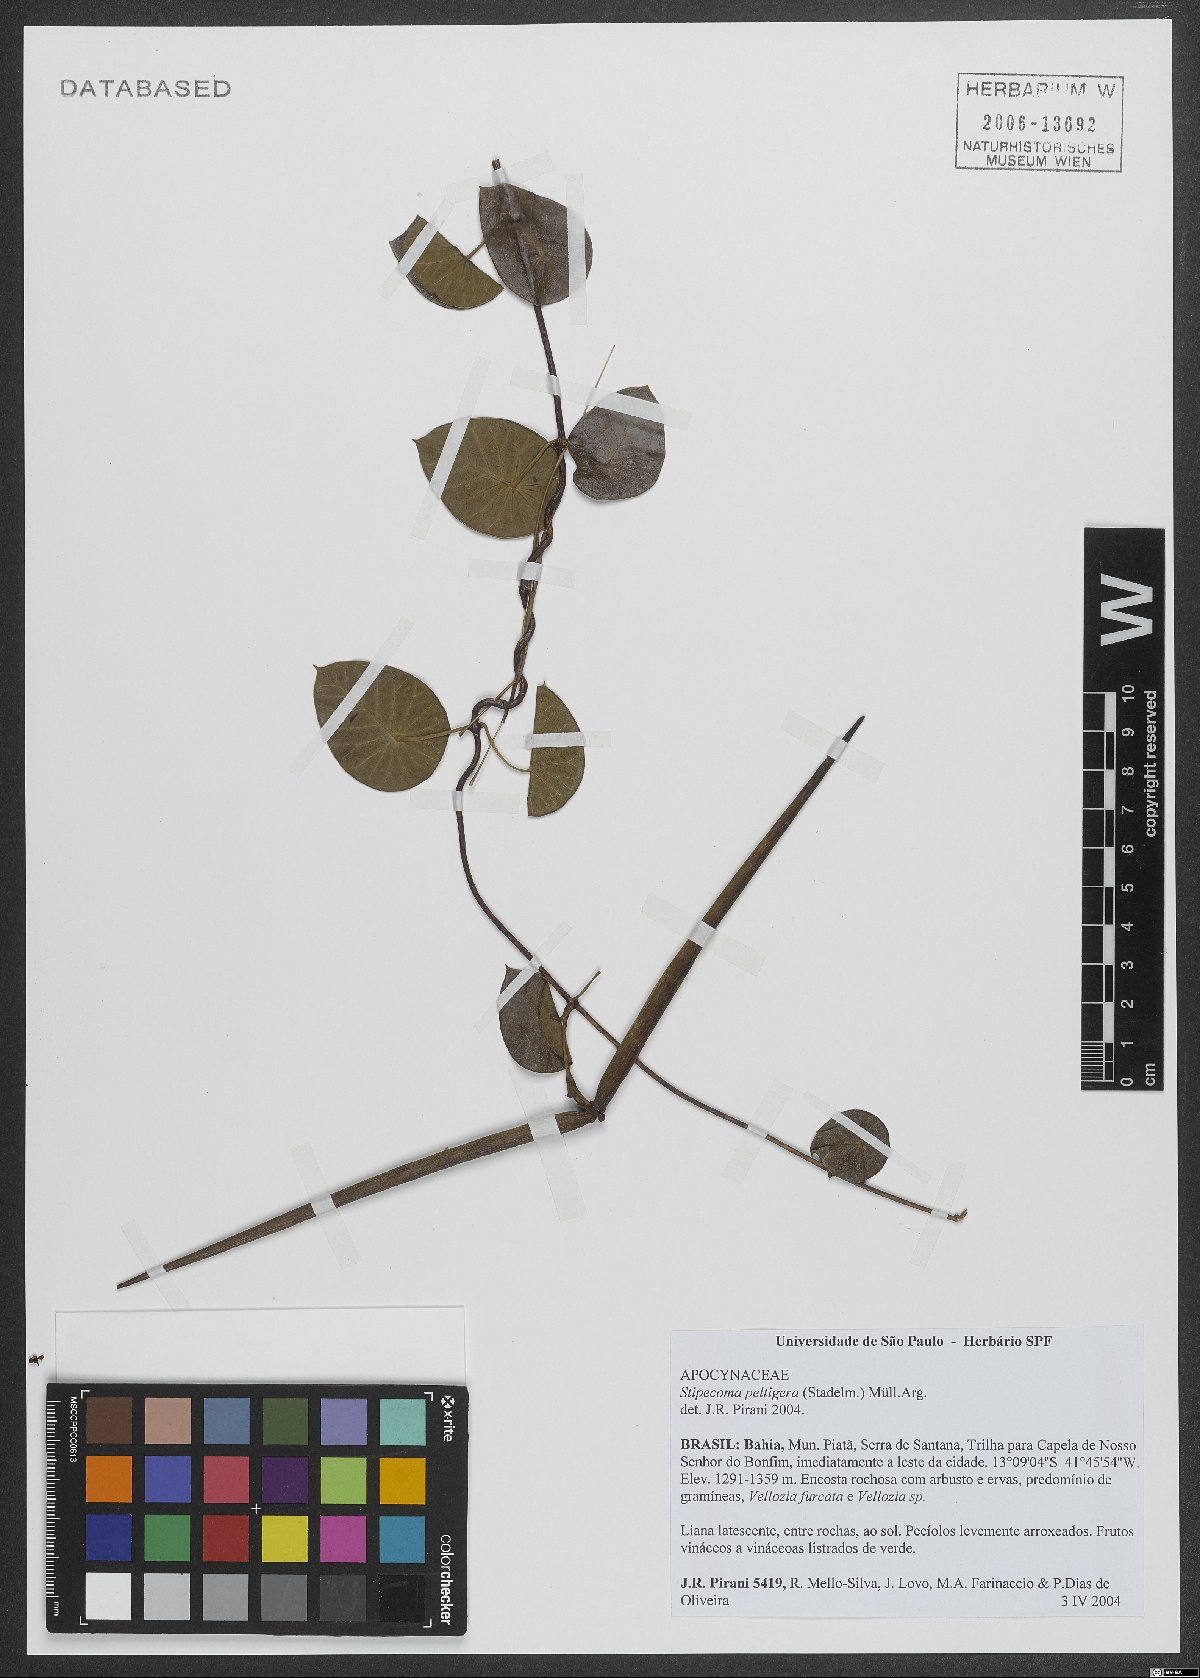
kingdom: Plantae
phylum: Tracheophyta
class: Magnoliopsida
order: Gentianales
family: Apocynaceae
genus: Stipecoma
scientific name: Stipecoma peltigera
